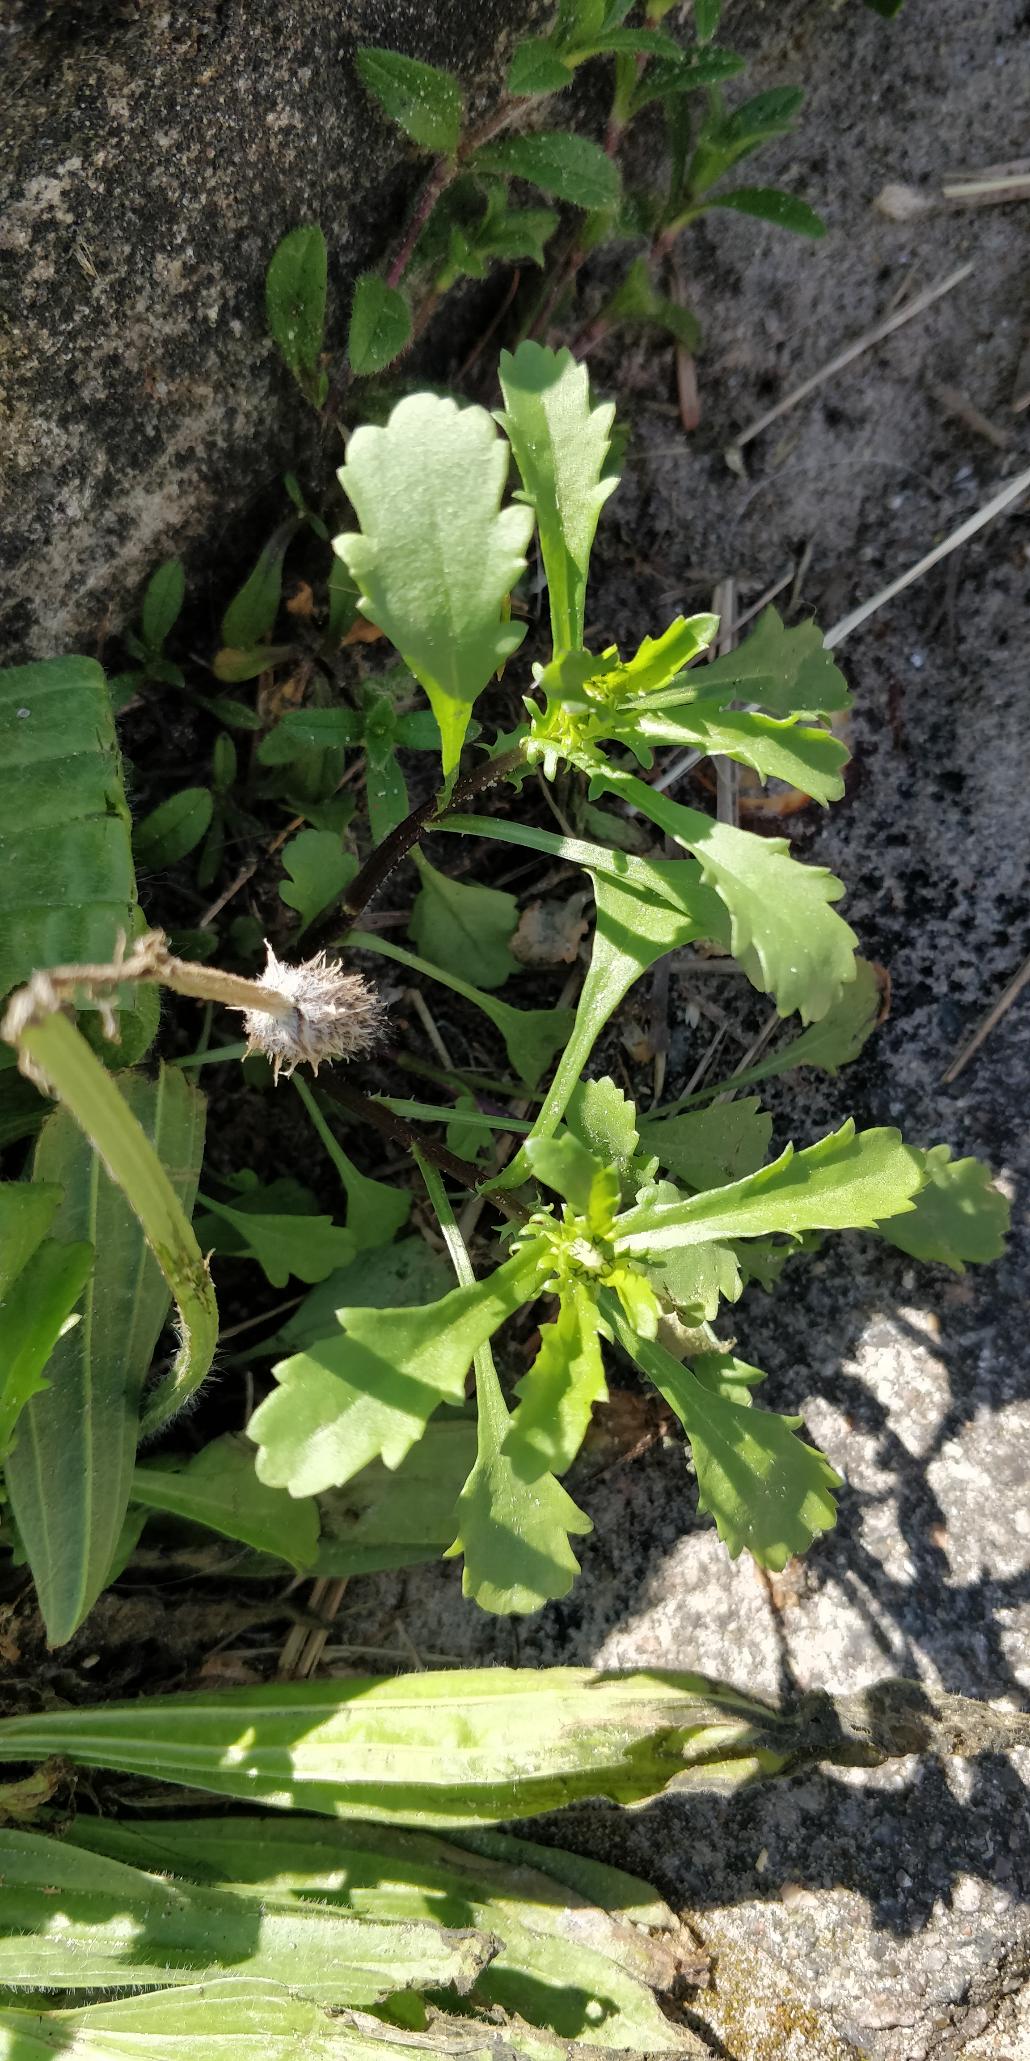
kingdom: Plantae
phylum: Tracheophyta
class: Magnoliopsida
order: Asterales
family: Asteraceae
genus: Leucanthemum
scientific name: Leucanthemum vulgare
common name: Hvid okseøje
